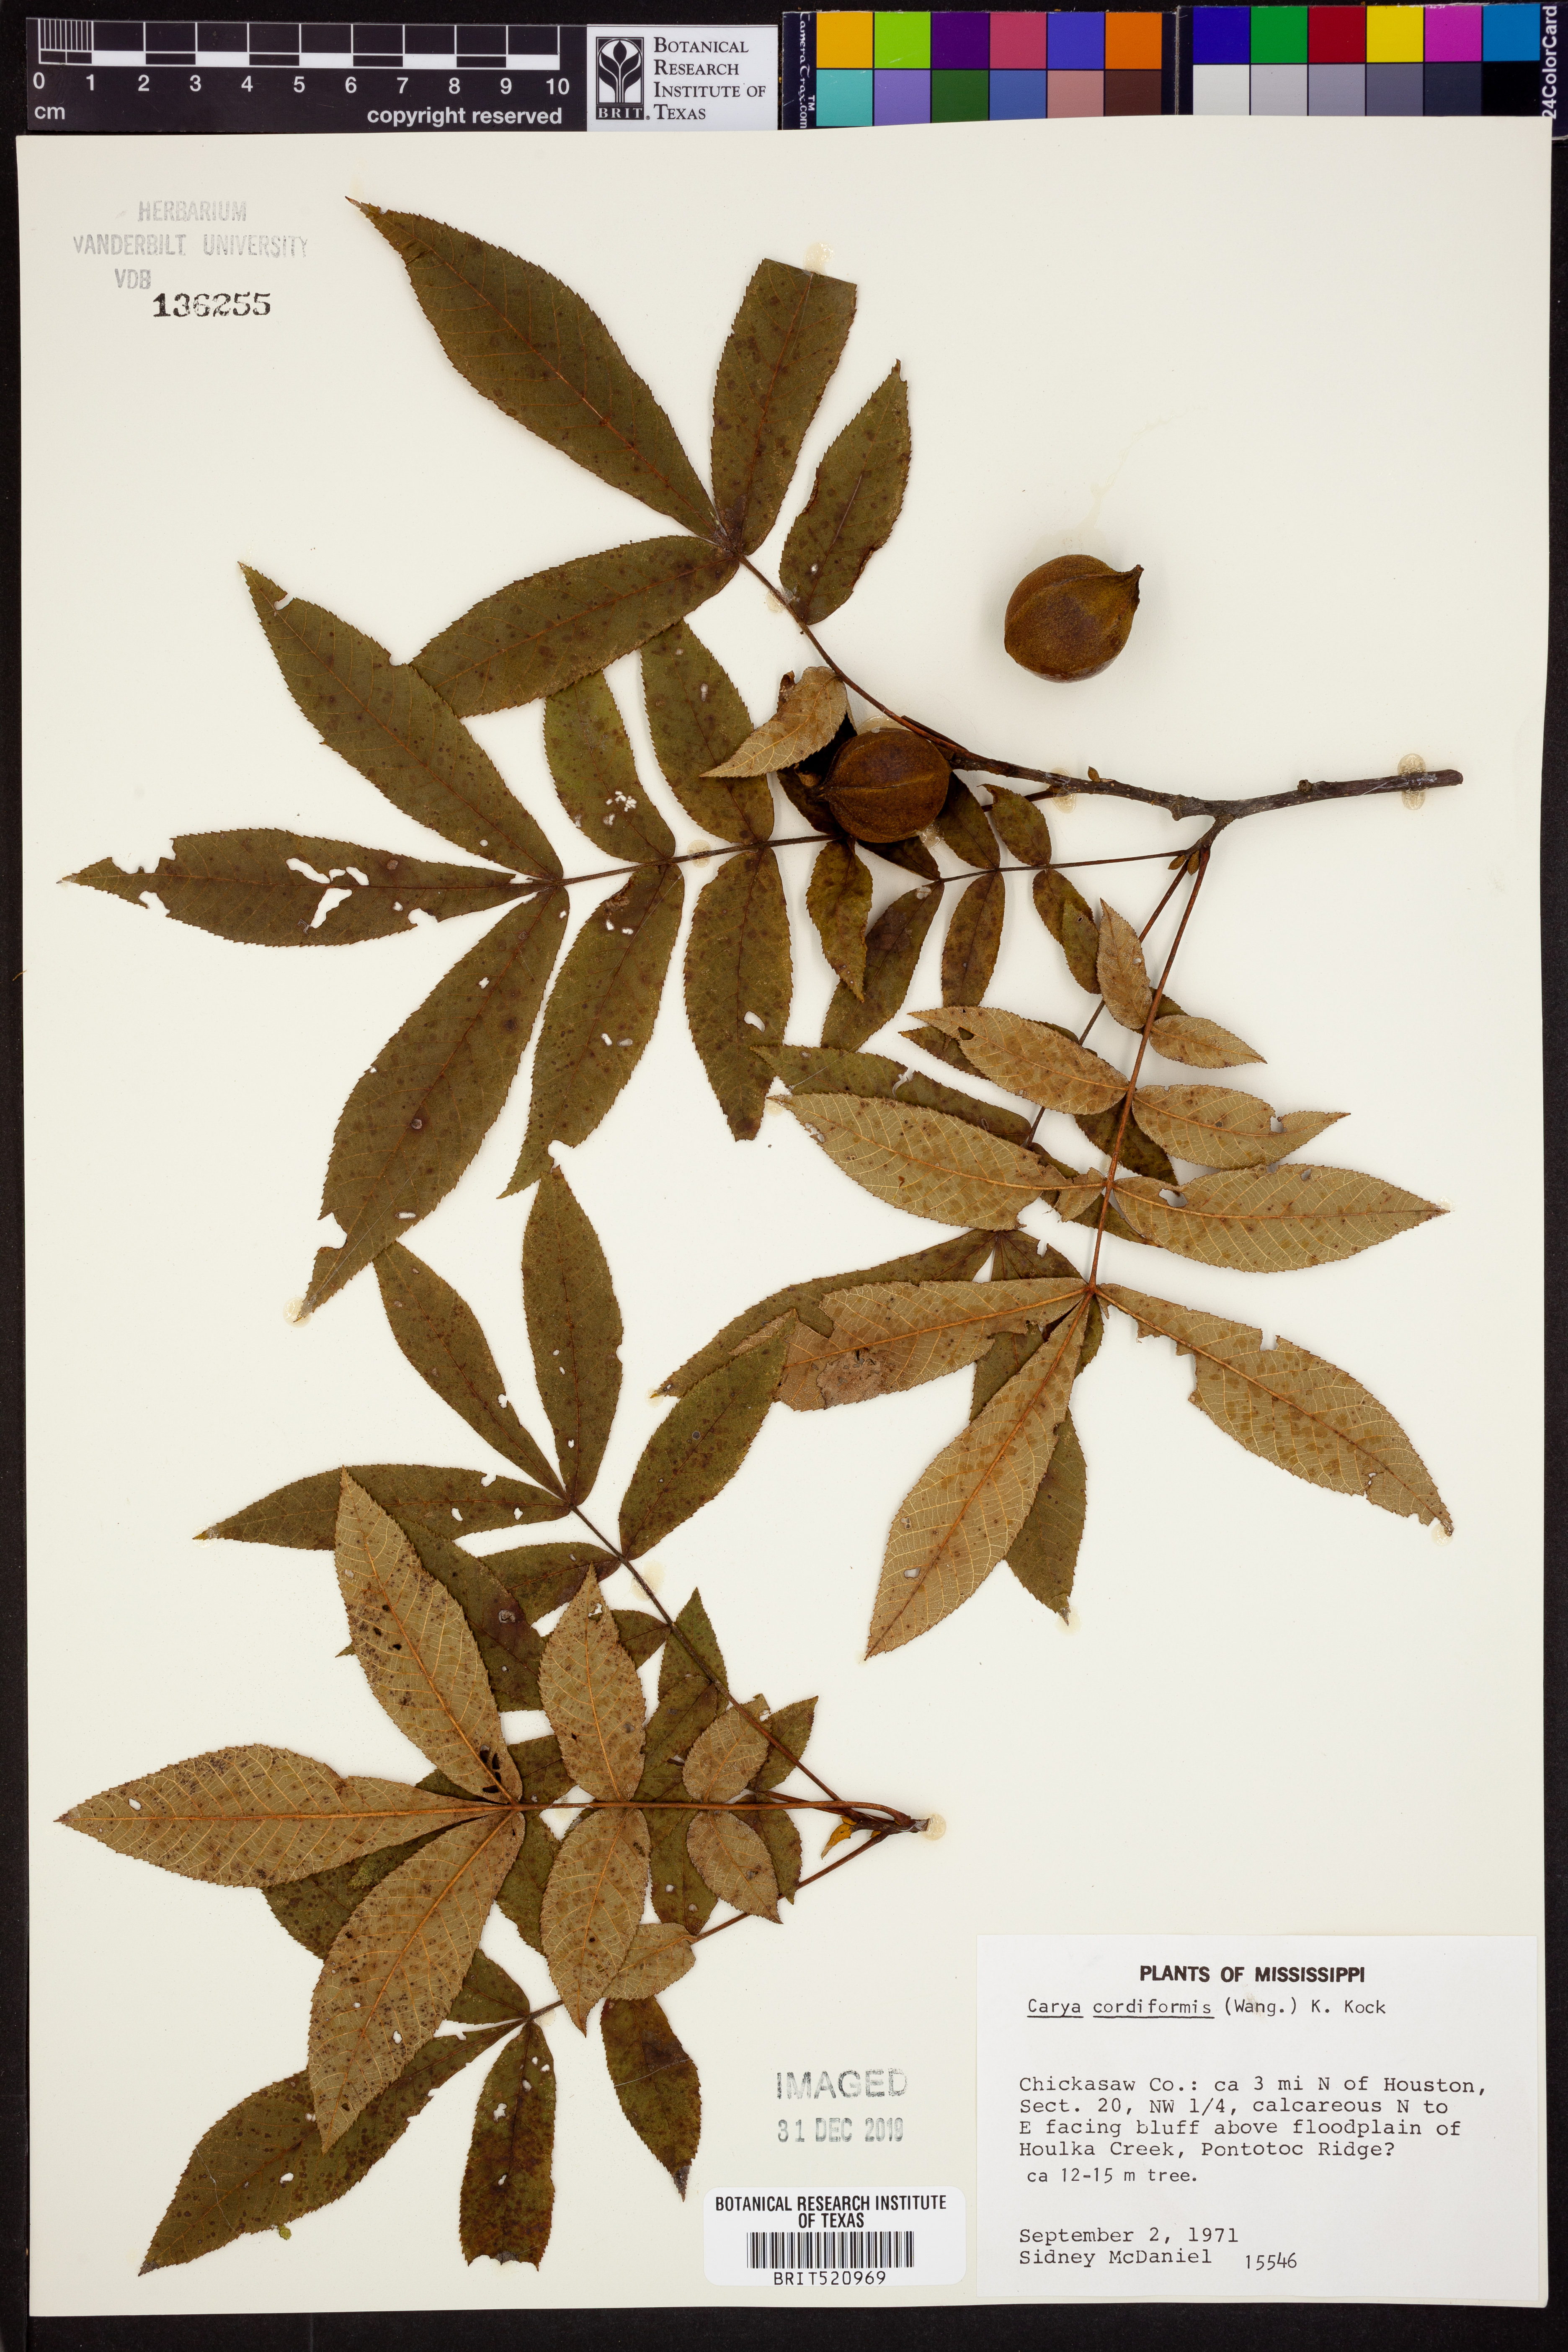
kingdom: Plantae
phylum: Tracheophyta
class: Magnoliopsida
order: Fagales
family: Juglandaceae
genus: Carya
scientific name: Carya cordiformis
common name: Bitternut hickory
